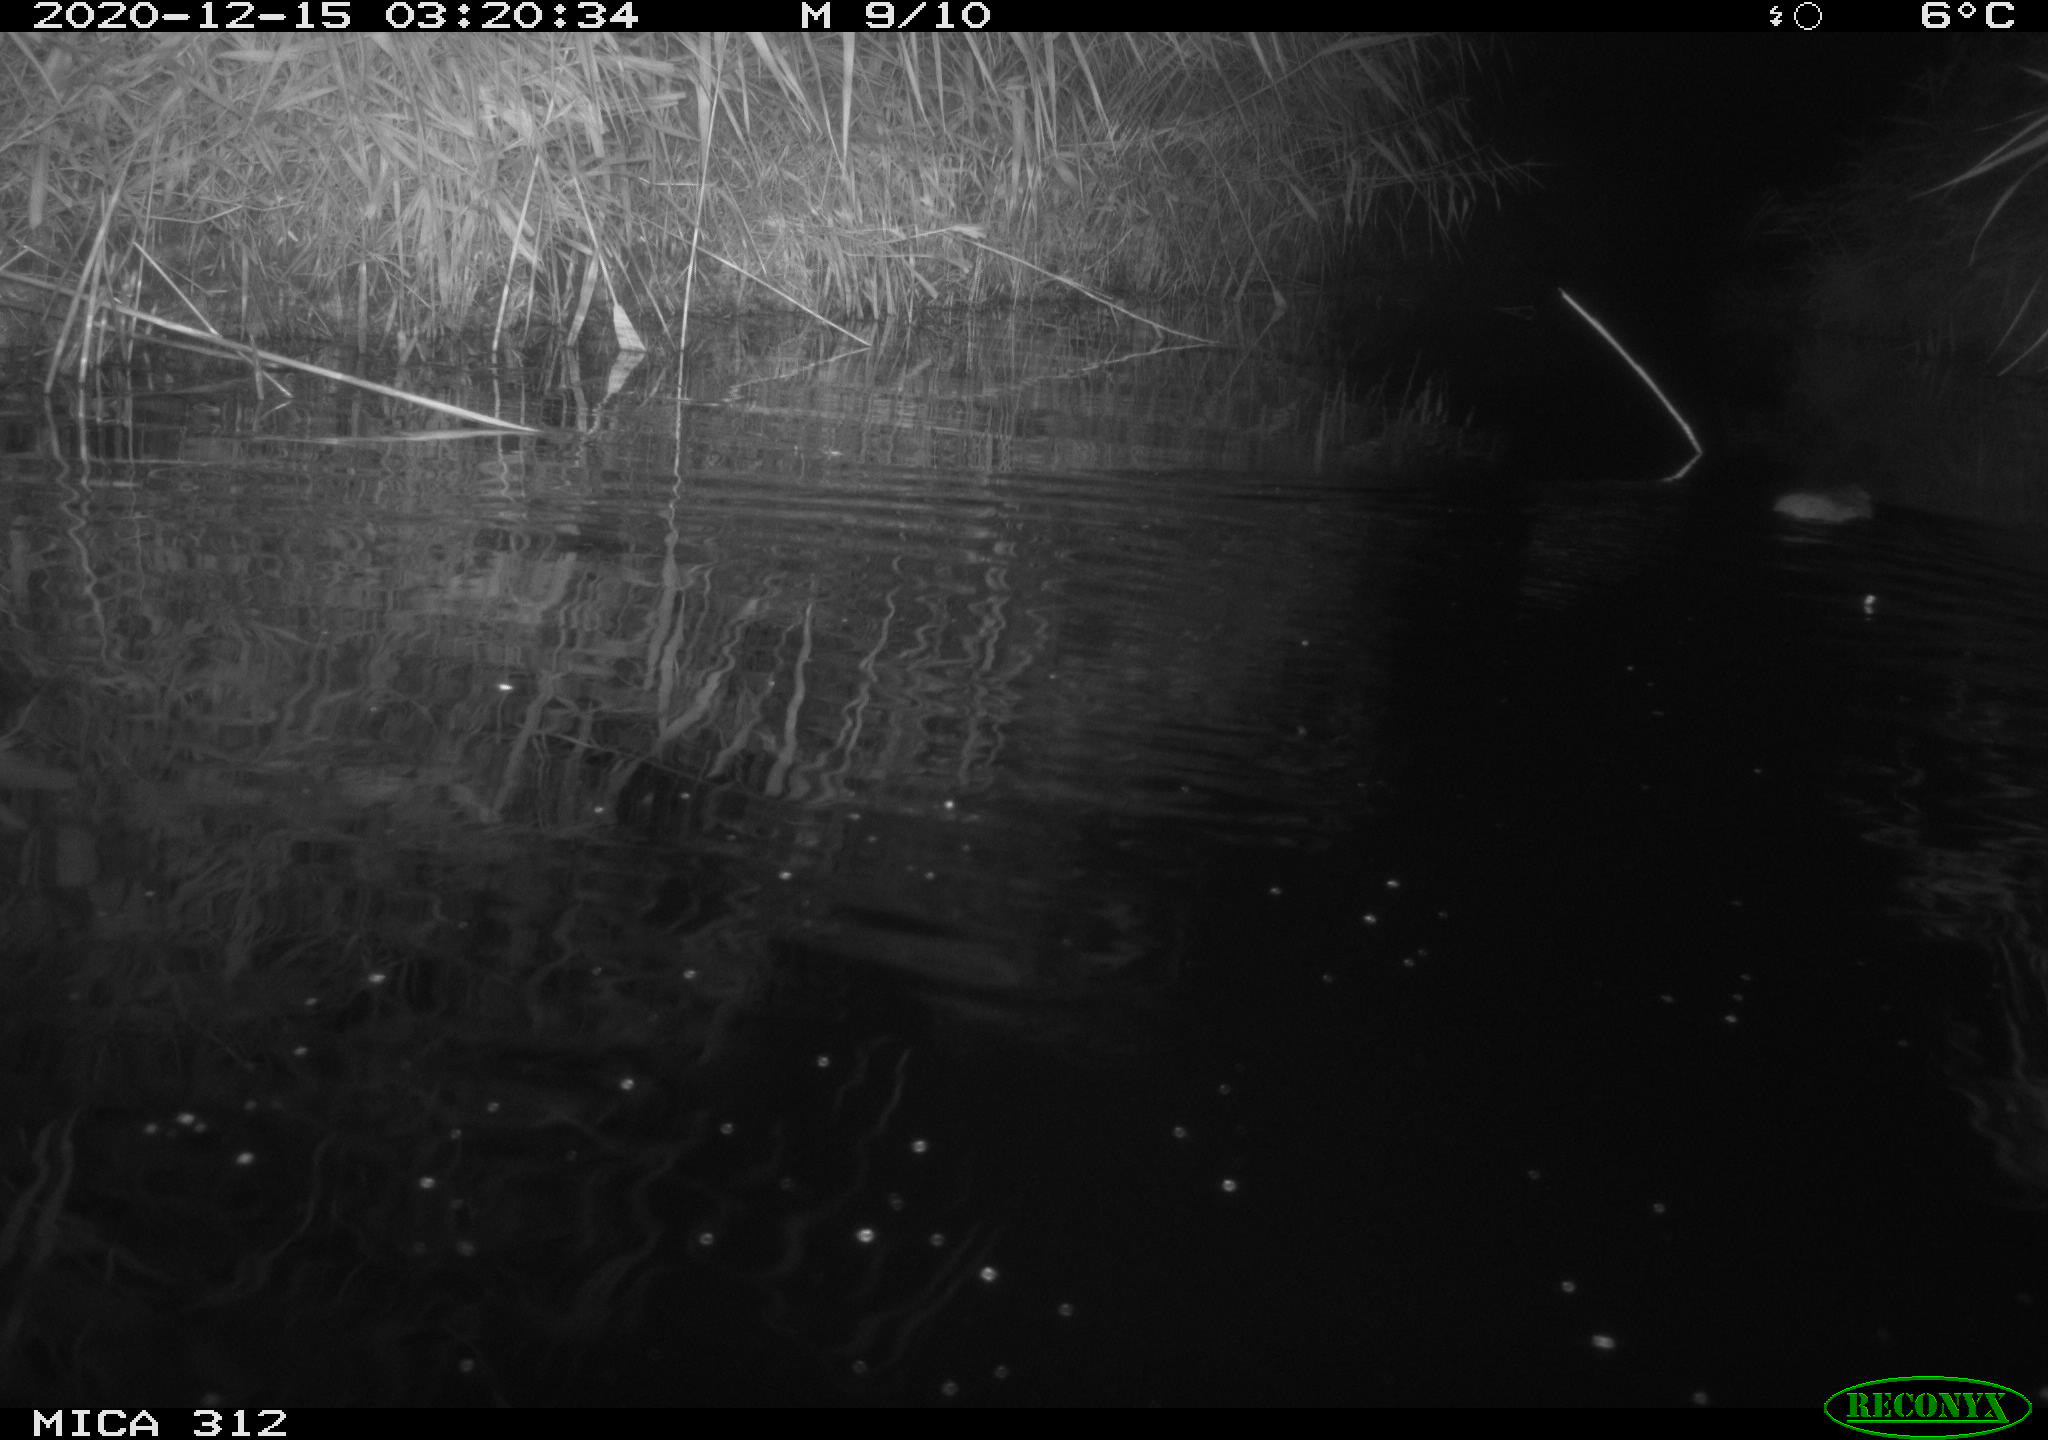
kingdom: Animalia
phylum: Chordata
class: Mammalia
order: Rodentia
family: Muridae
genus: Rattus
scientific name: Rattus norvegicus
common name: Brown rat
